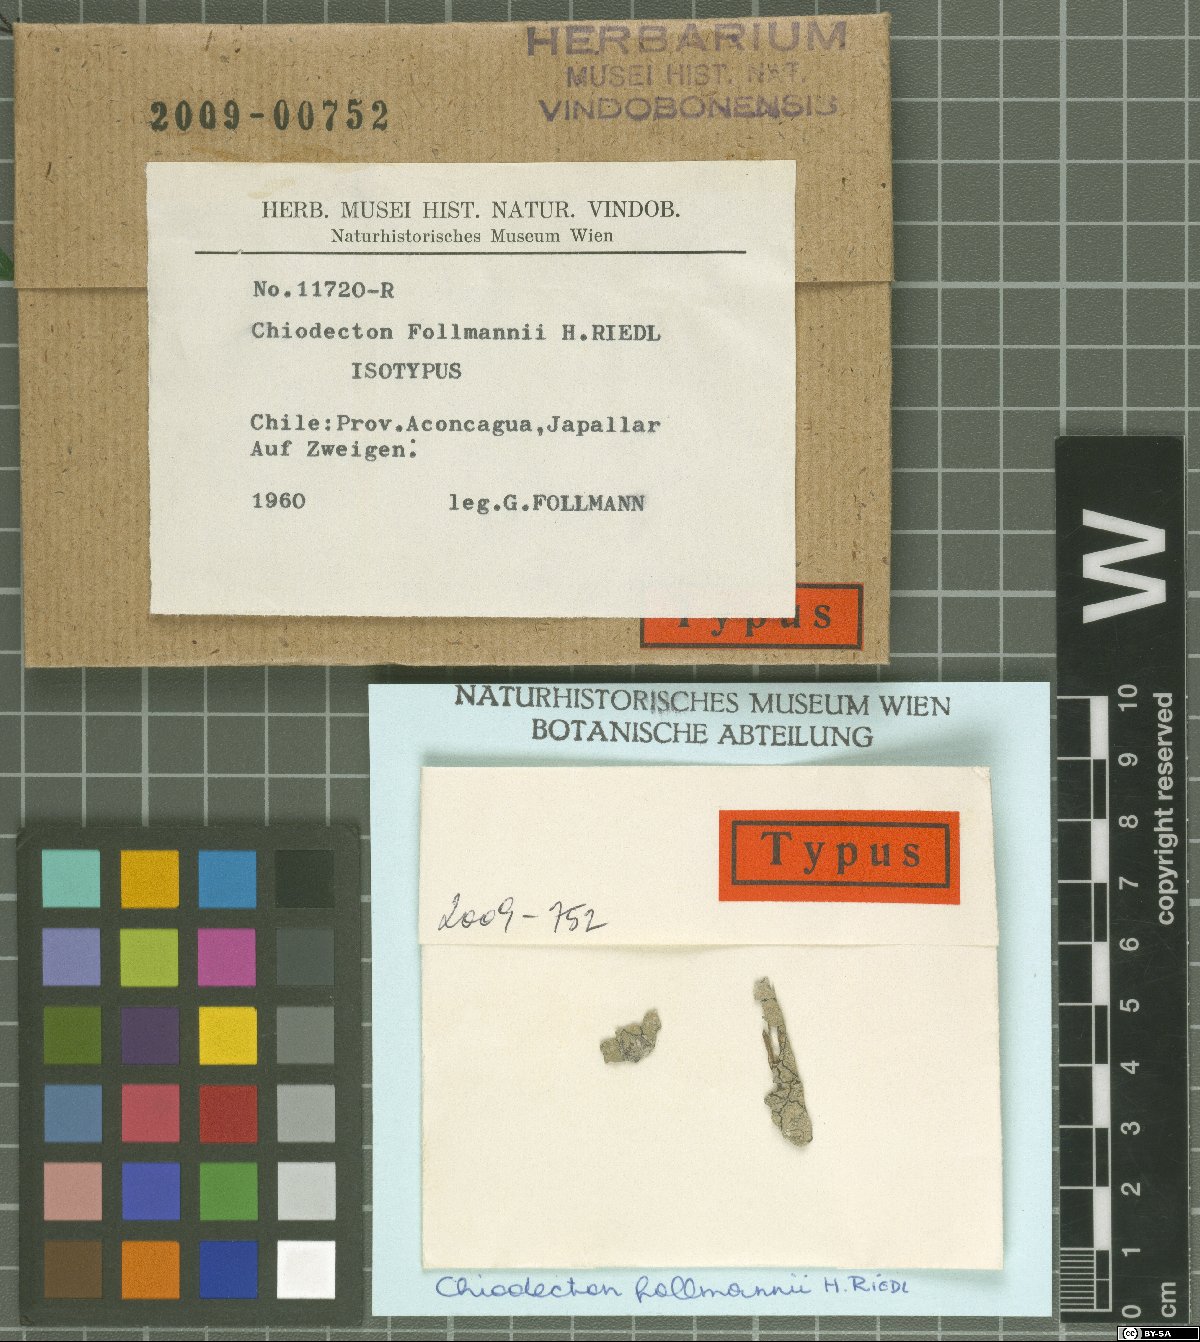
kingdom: Fungi
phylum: Ascomycota
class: Arthoniomycetes
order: Arthoniales
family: Roccellaceae
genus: Chiodecton
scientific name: Chiodecton
